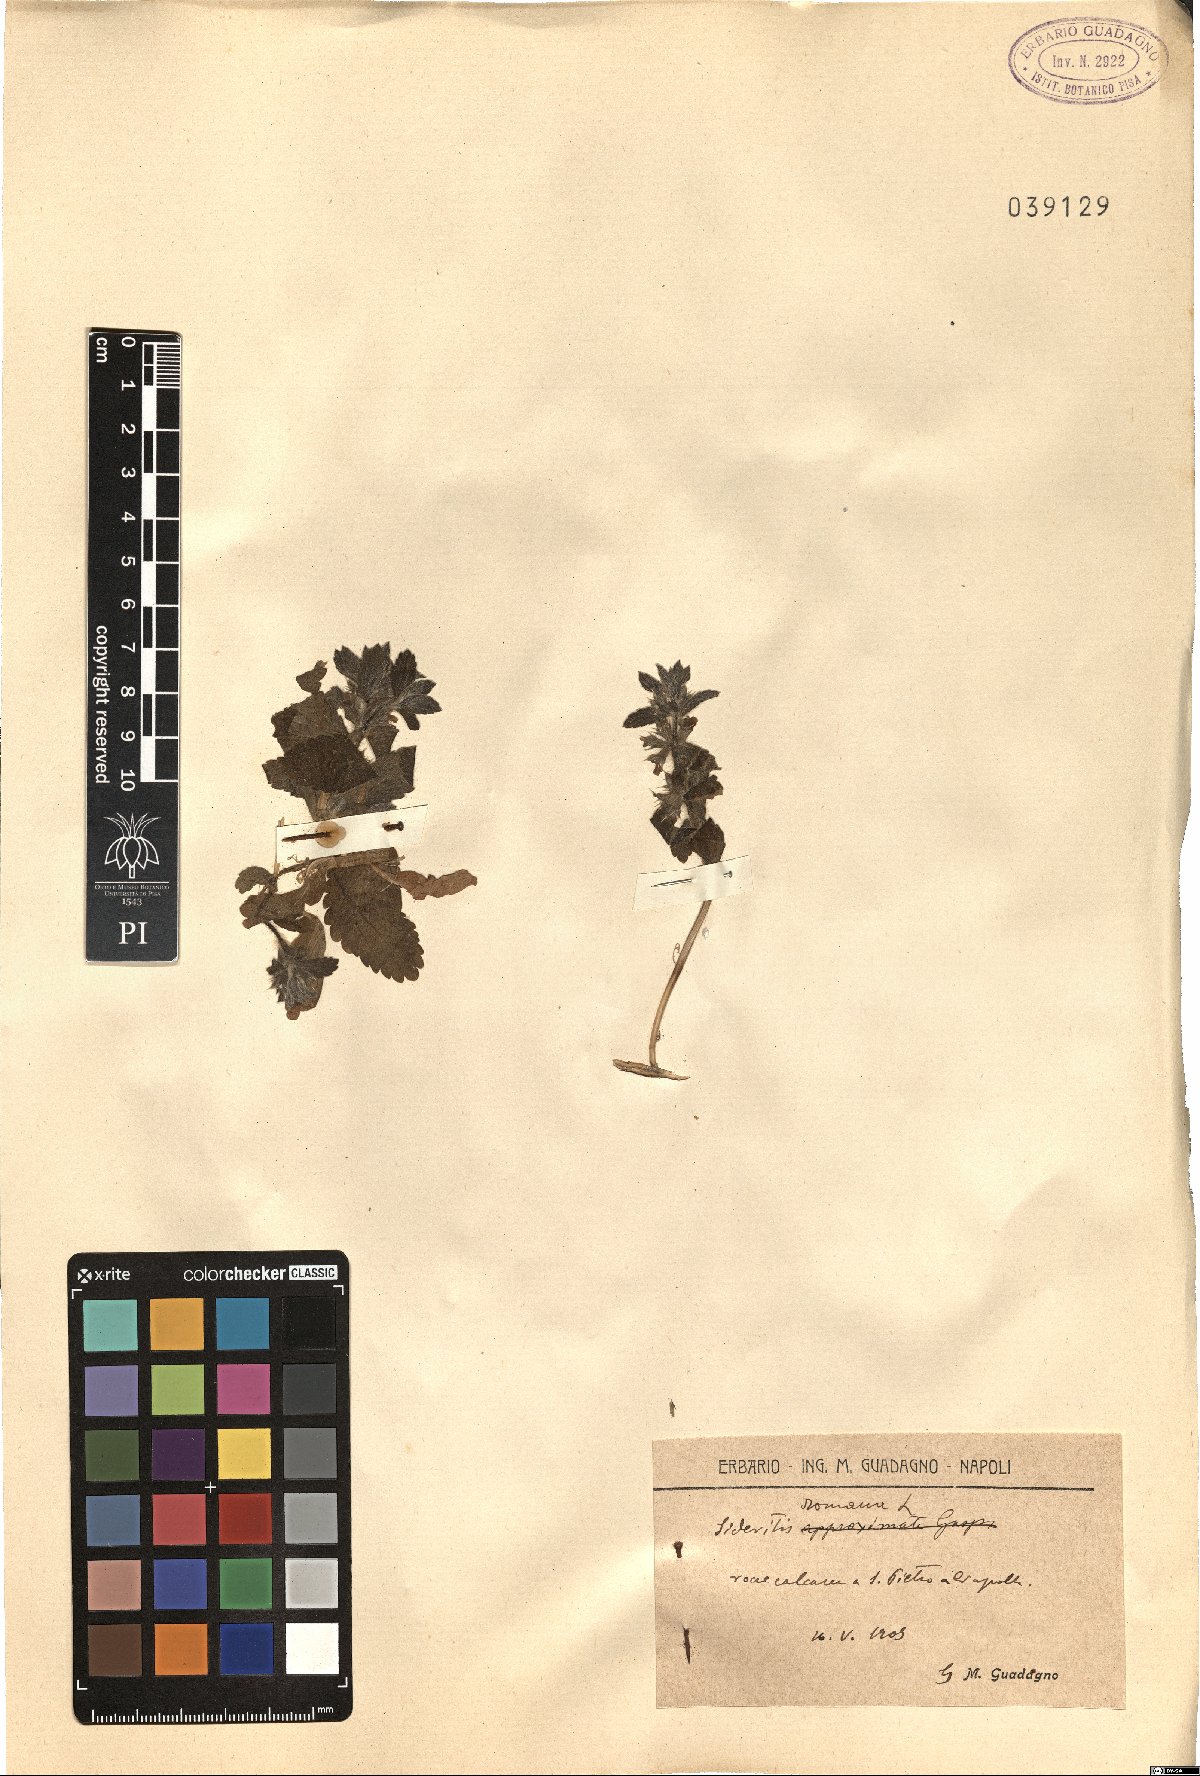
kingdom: Plantae
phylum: Tracheophyta
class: Magnoliopsida
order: Lamiales
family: Lamiaceae
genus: Sideritis
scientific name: Sideritis romana
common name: Simplebeak ironwort
